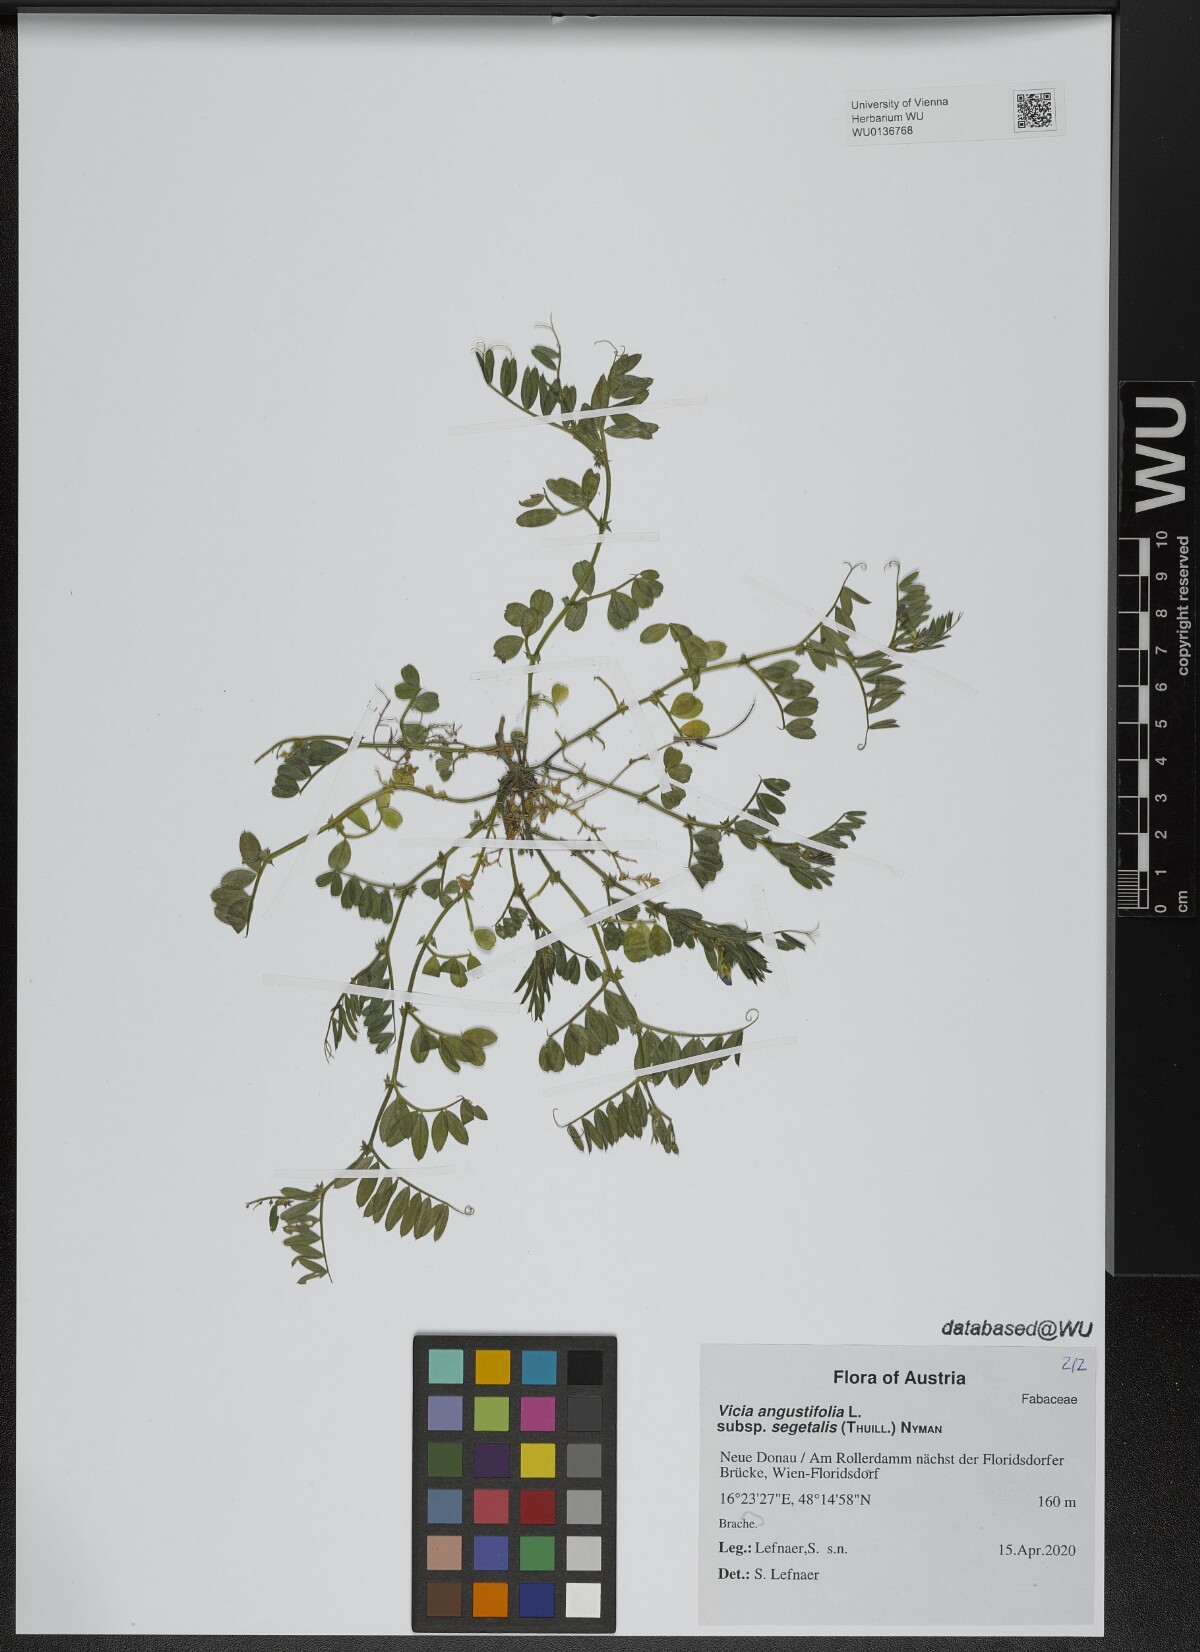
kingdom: Plantae
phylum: Tracheophyta
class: Magnoliopsida
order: Fabales
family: Fabaceae
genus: Vicia
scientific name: Vicia sativa
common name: Garden vetch
